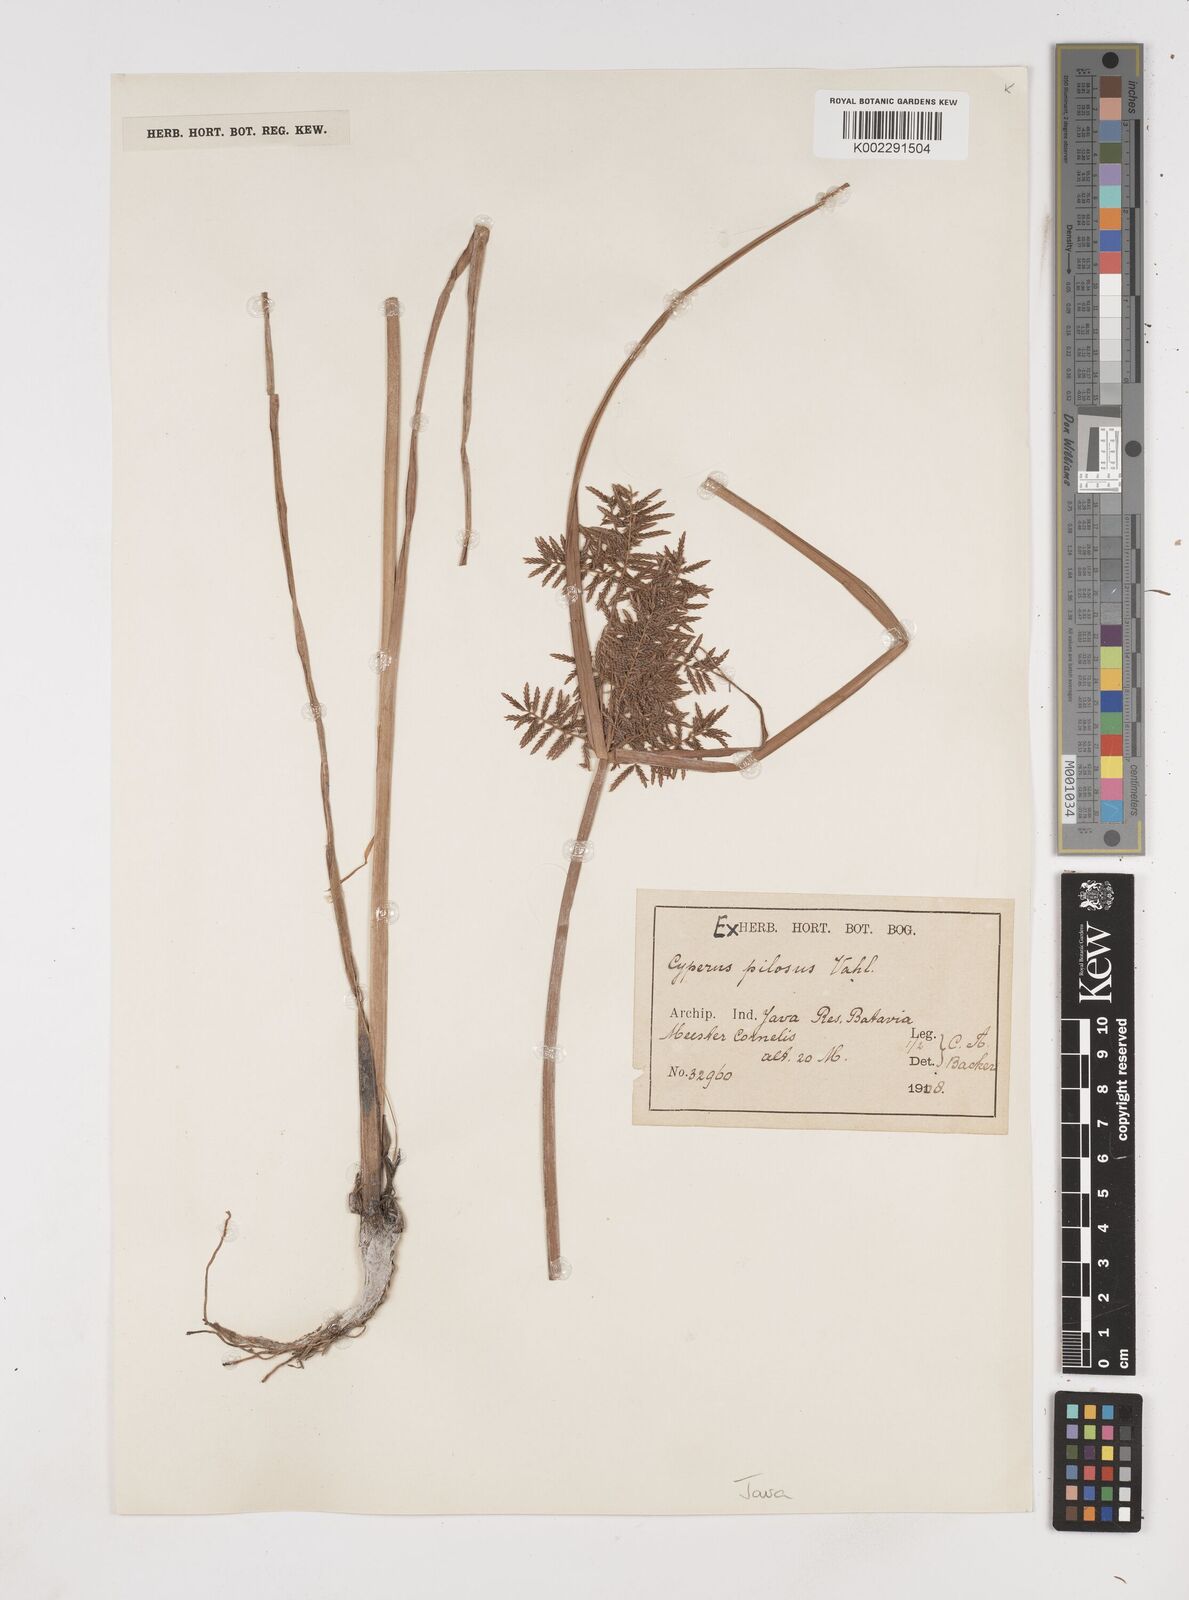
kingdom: Plantae
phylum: Tracheophyta
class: Liliopsida
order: Poales
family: Cyperaceae
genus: Cyperus
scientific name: Cyperus pilosus
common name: Fuzzy flatsedge
